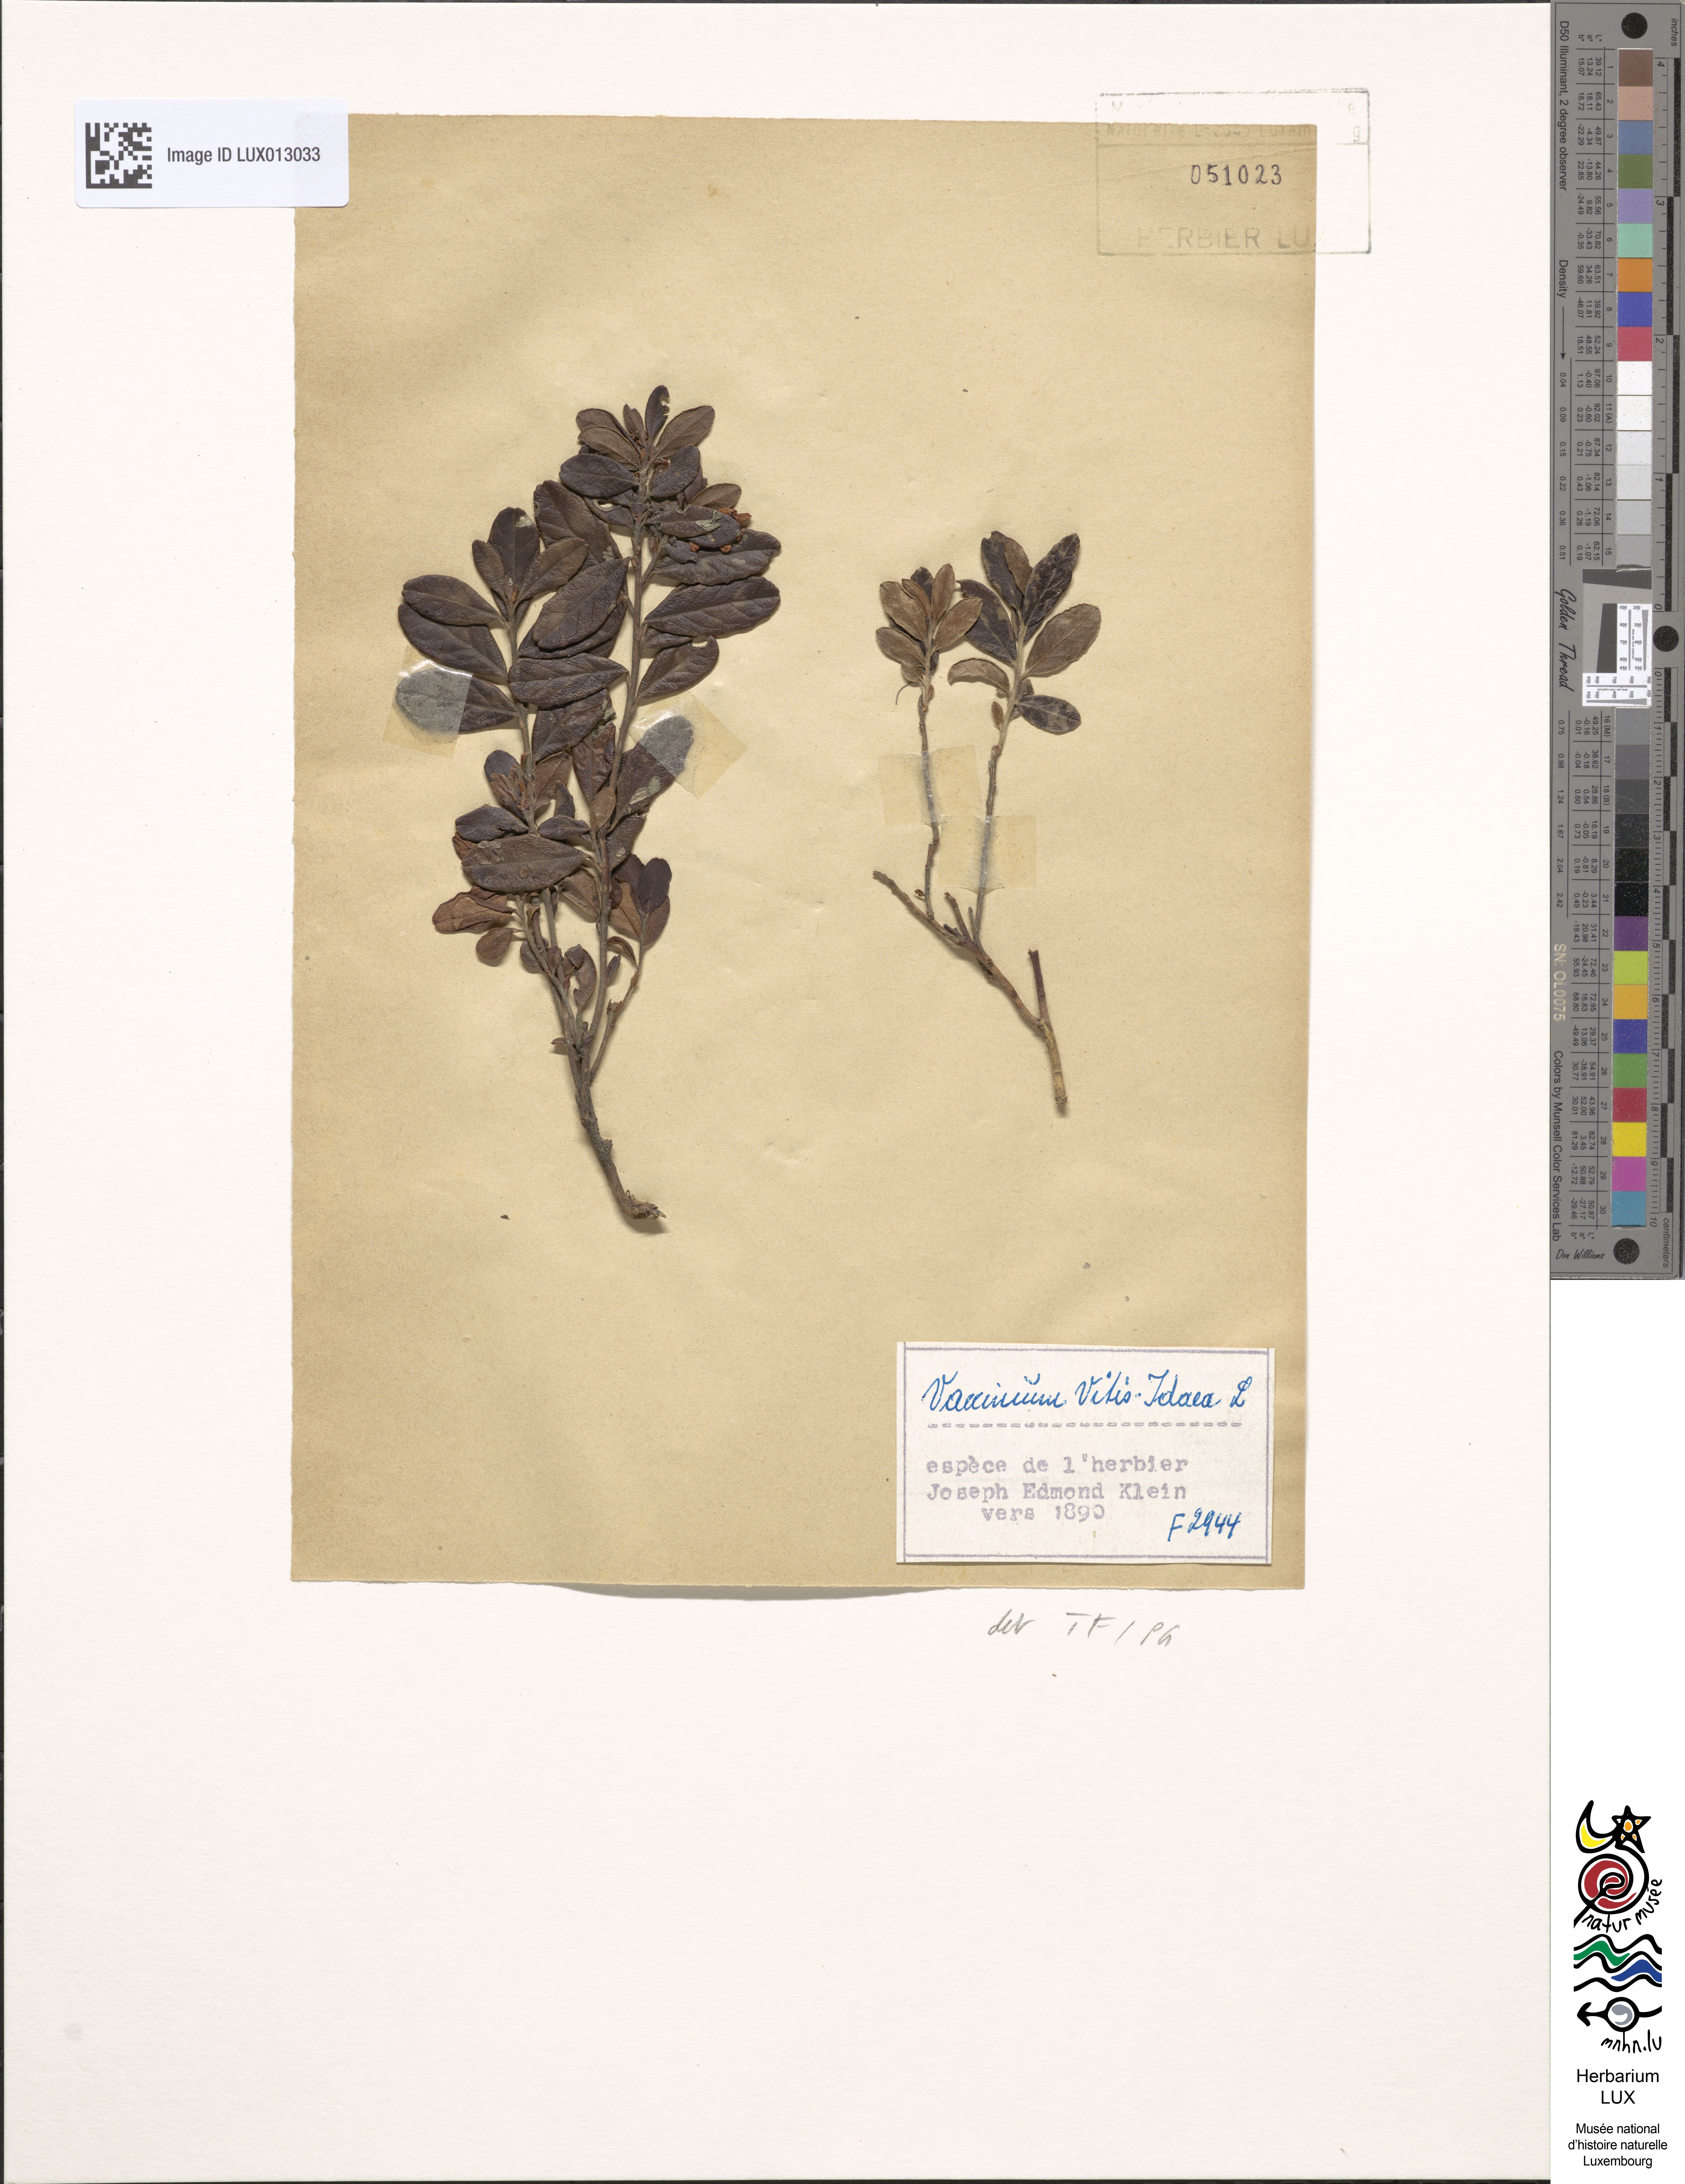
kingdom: Plantae
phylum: Tracheophyta
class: Magnoliopsida
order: Ericales
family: Ericaceae
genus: Vaccinium
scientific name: Vaccinium vitis-idaea
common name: Cowberry
